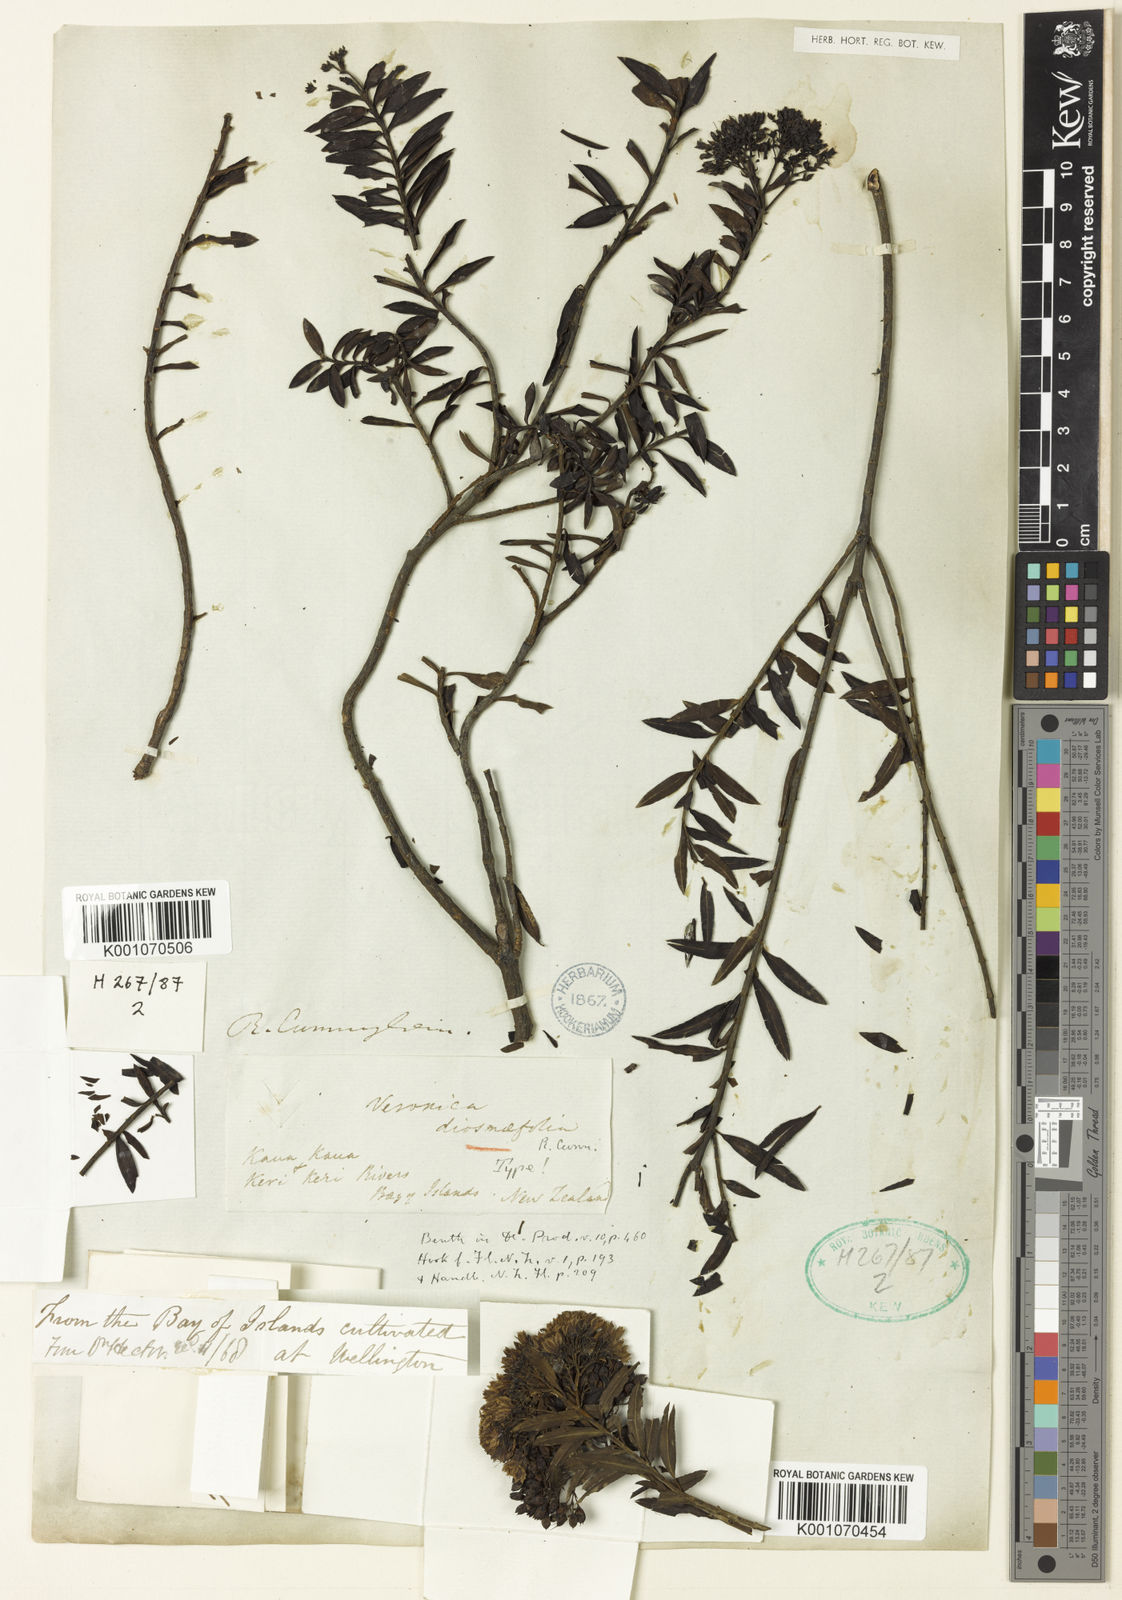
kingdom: Plantae
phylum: Tracheophyta
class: Magnoliopsida
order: Lamiales
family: Plantaginaceae
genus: Veronica
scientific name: Veronica
